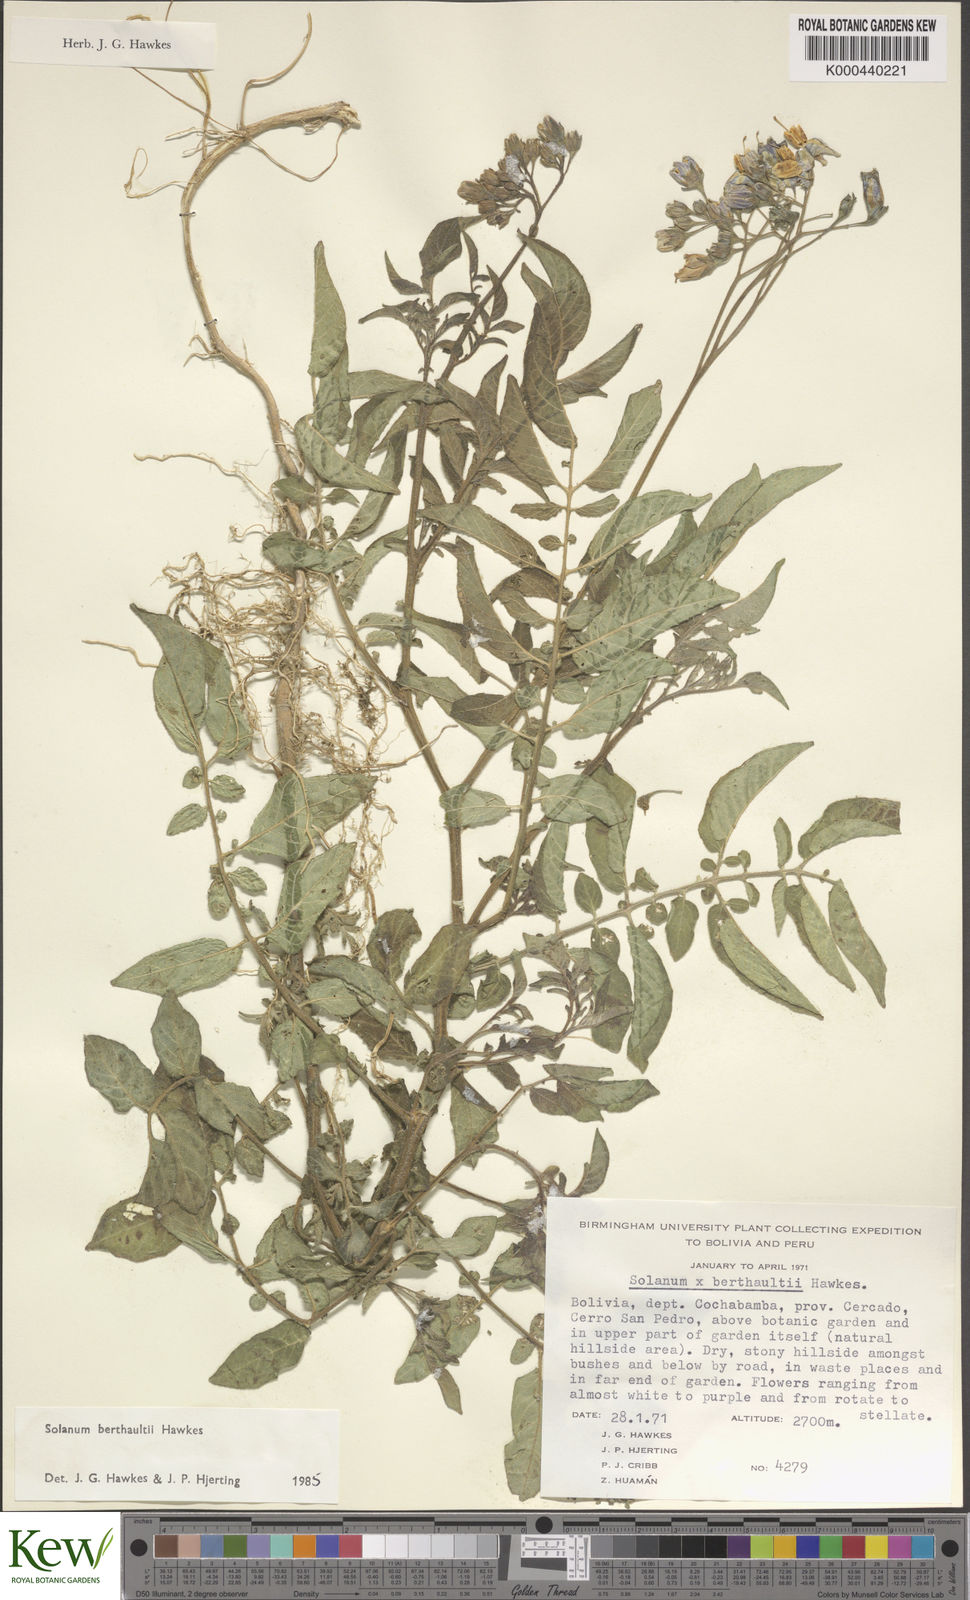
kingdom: Plantae
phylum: Tracheophyta
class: Magnoliopsida
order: Solanales
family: Solanaceae
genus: Solanum
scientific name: Solanum berthaultii
